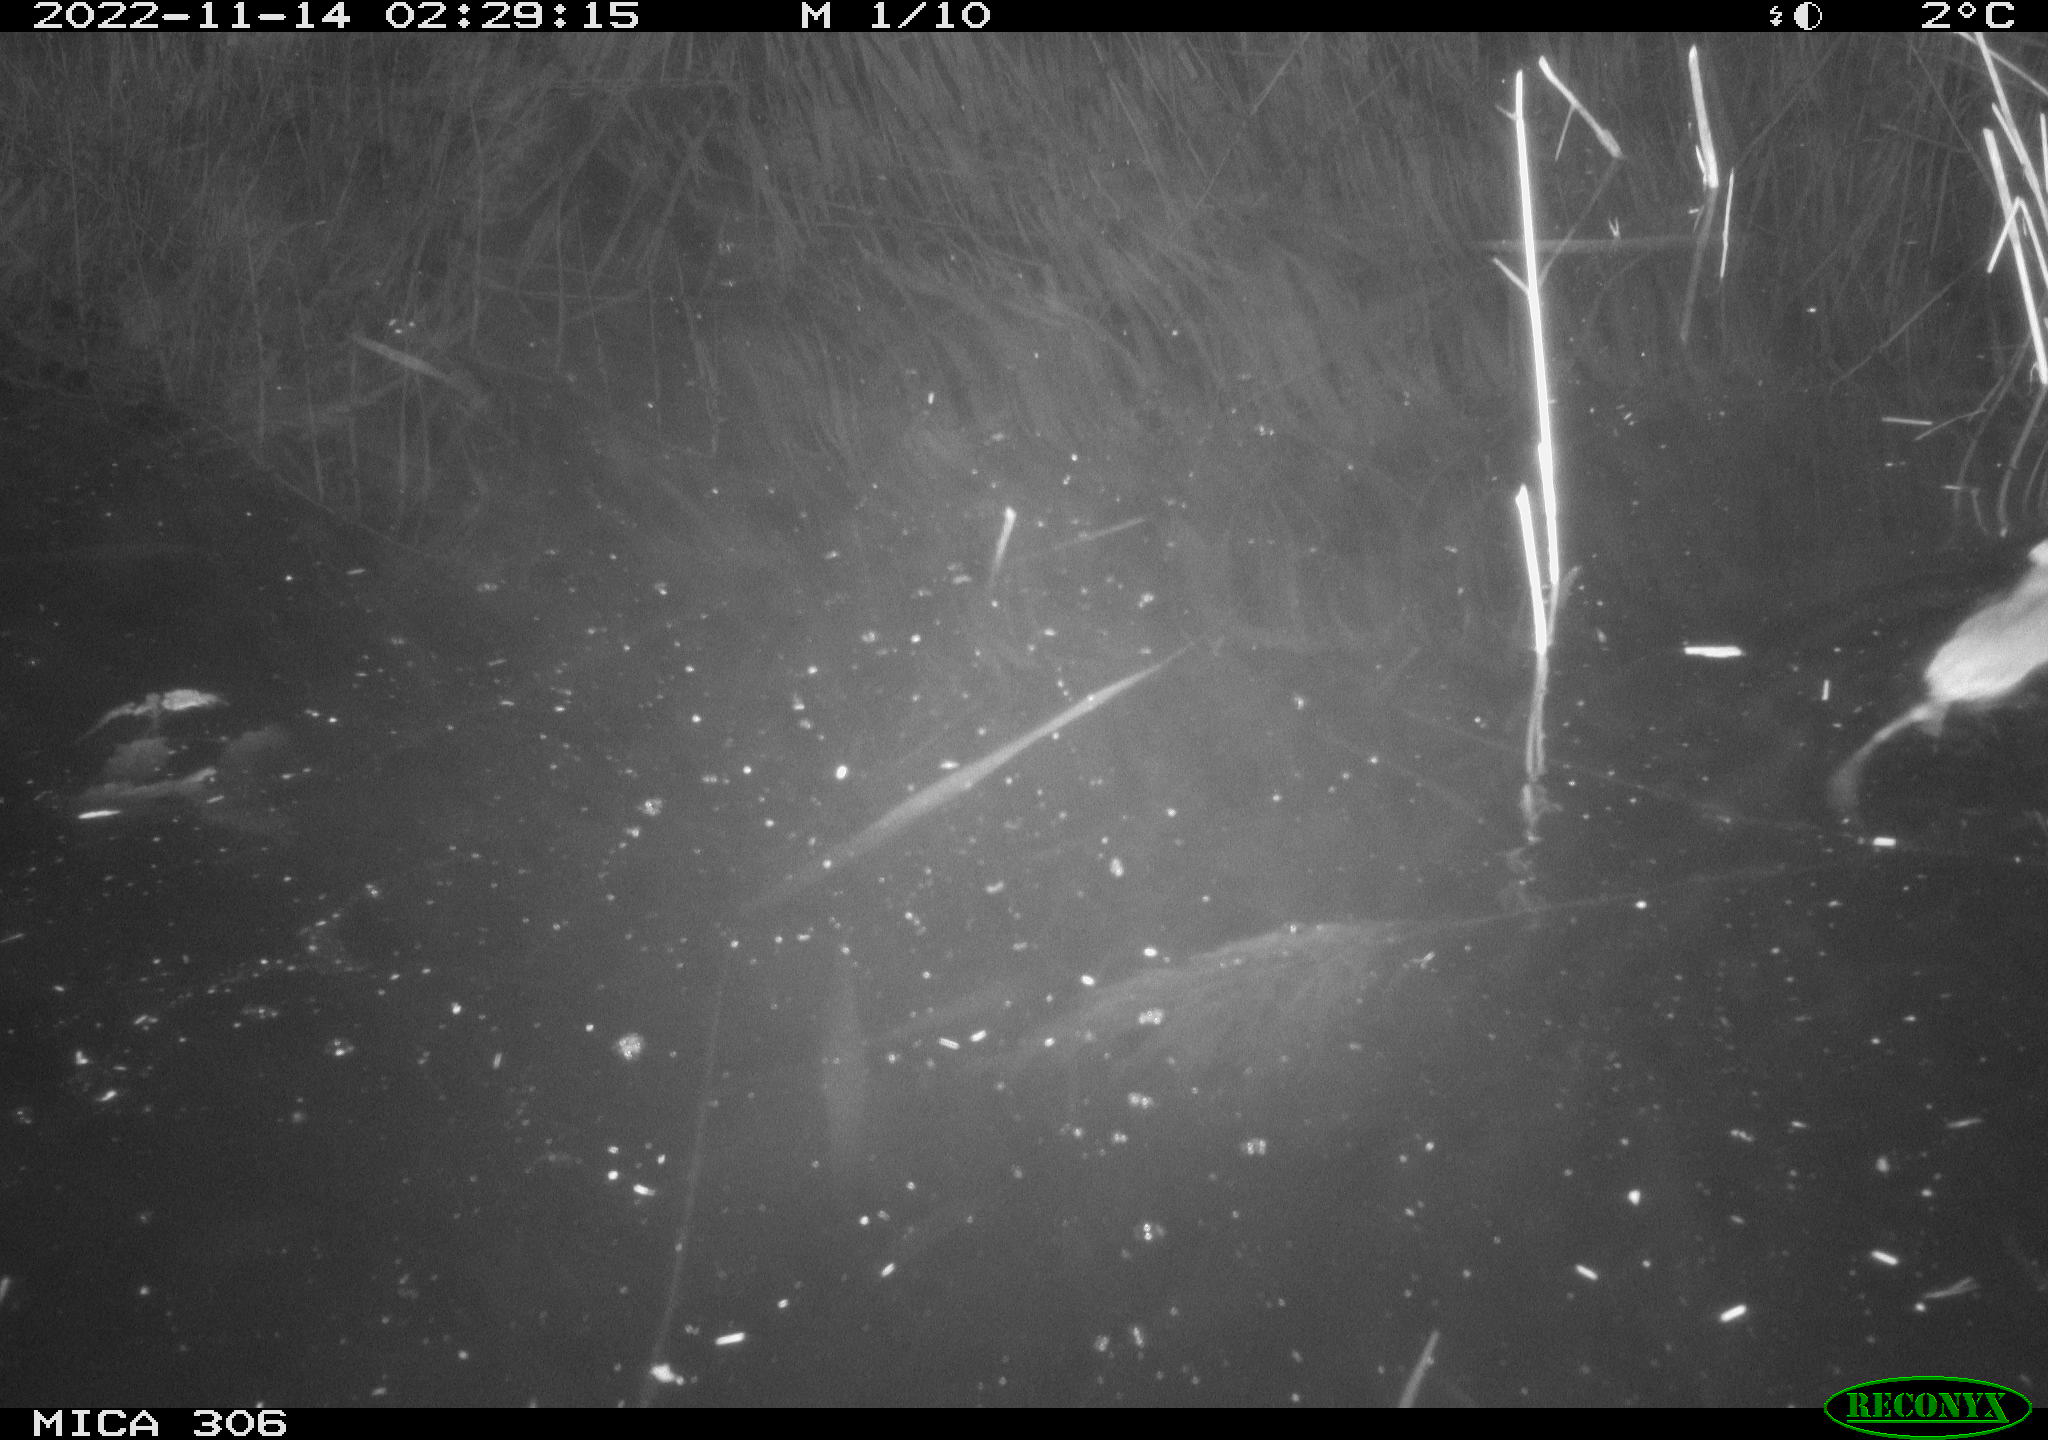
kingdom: Animalia
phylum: Chordata
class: Mammalia
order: Rodentia
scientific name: Rodentia
